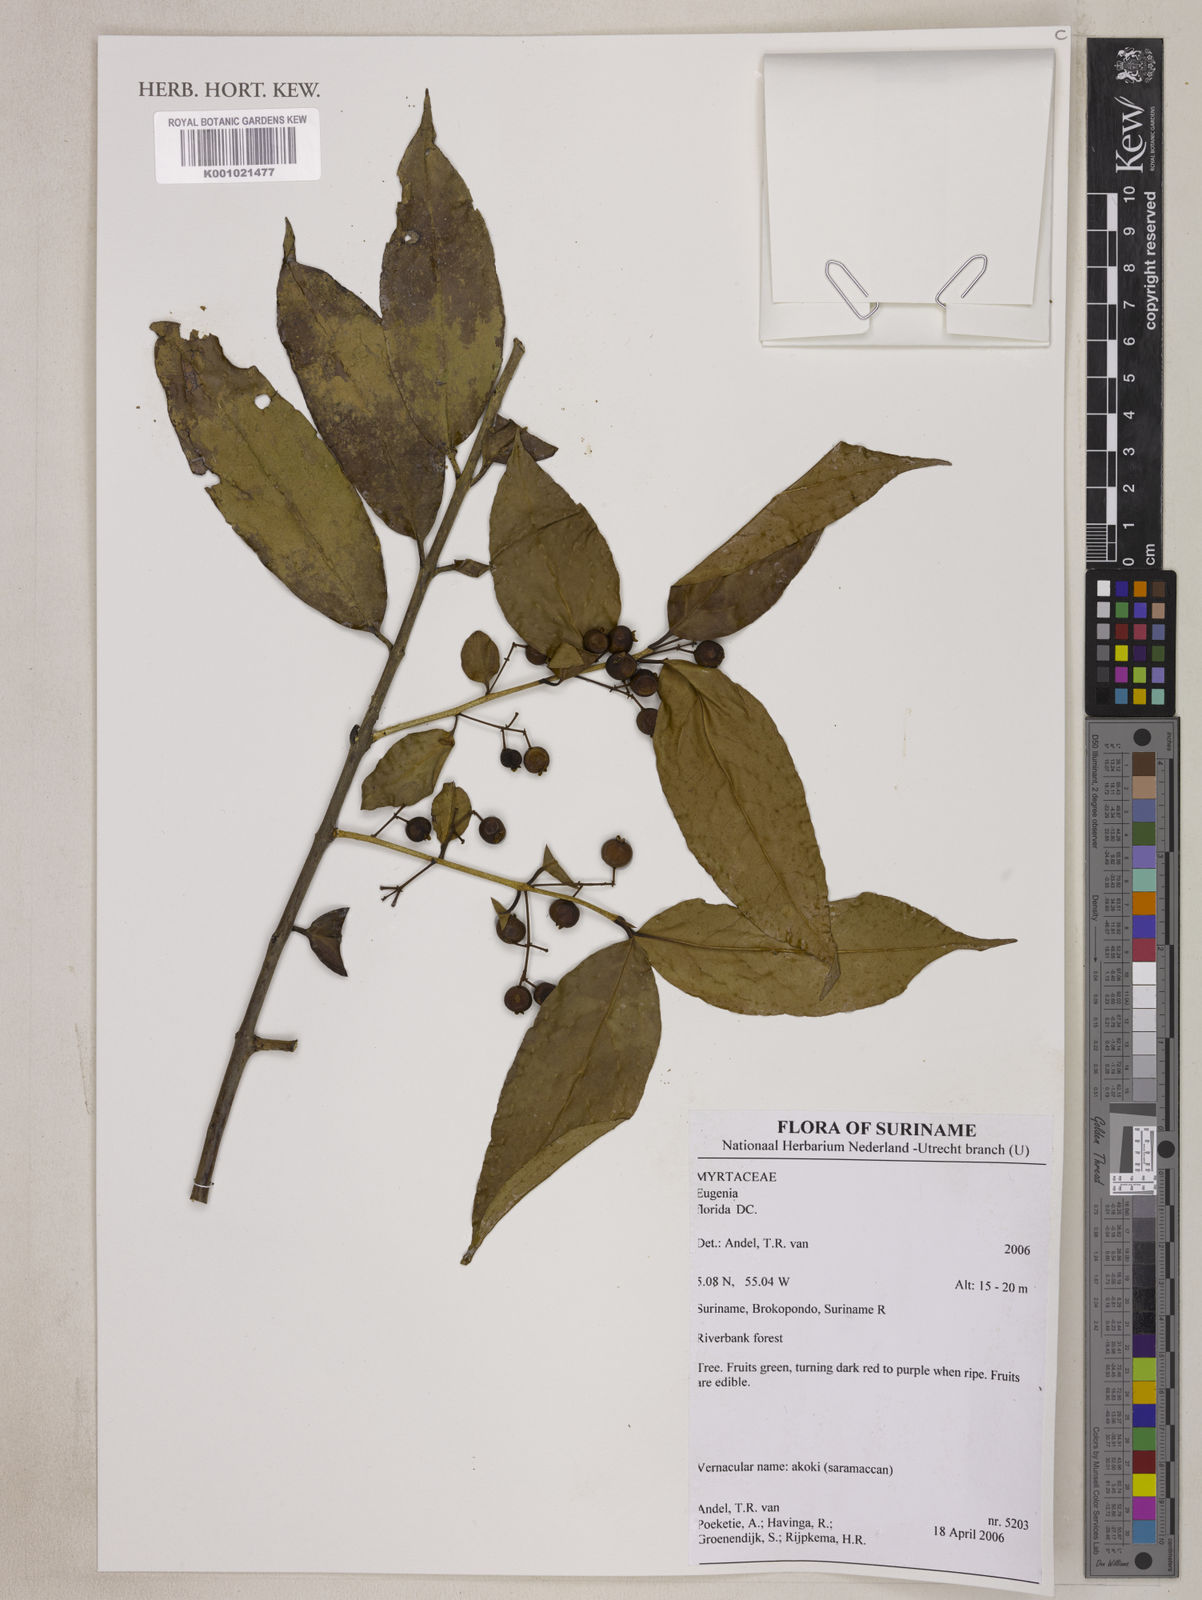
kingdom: Plantae
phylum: Tracheophyta
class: Magnoliopsida
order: Myrtales
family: Myrtaceae
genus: Eugenia
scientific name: Eugenia florida
